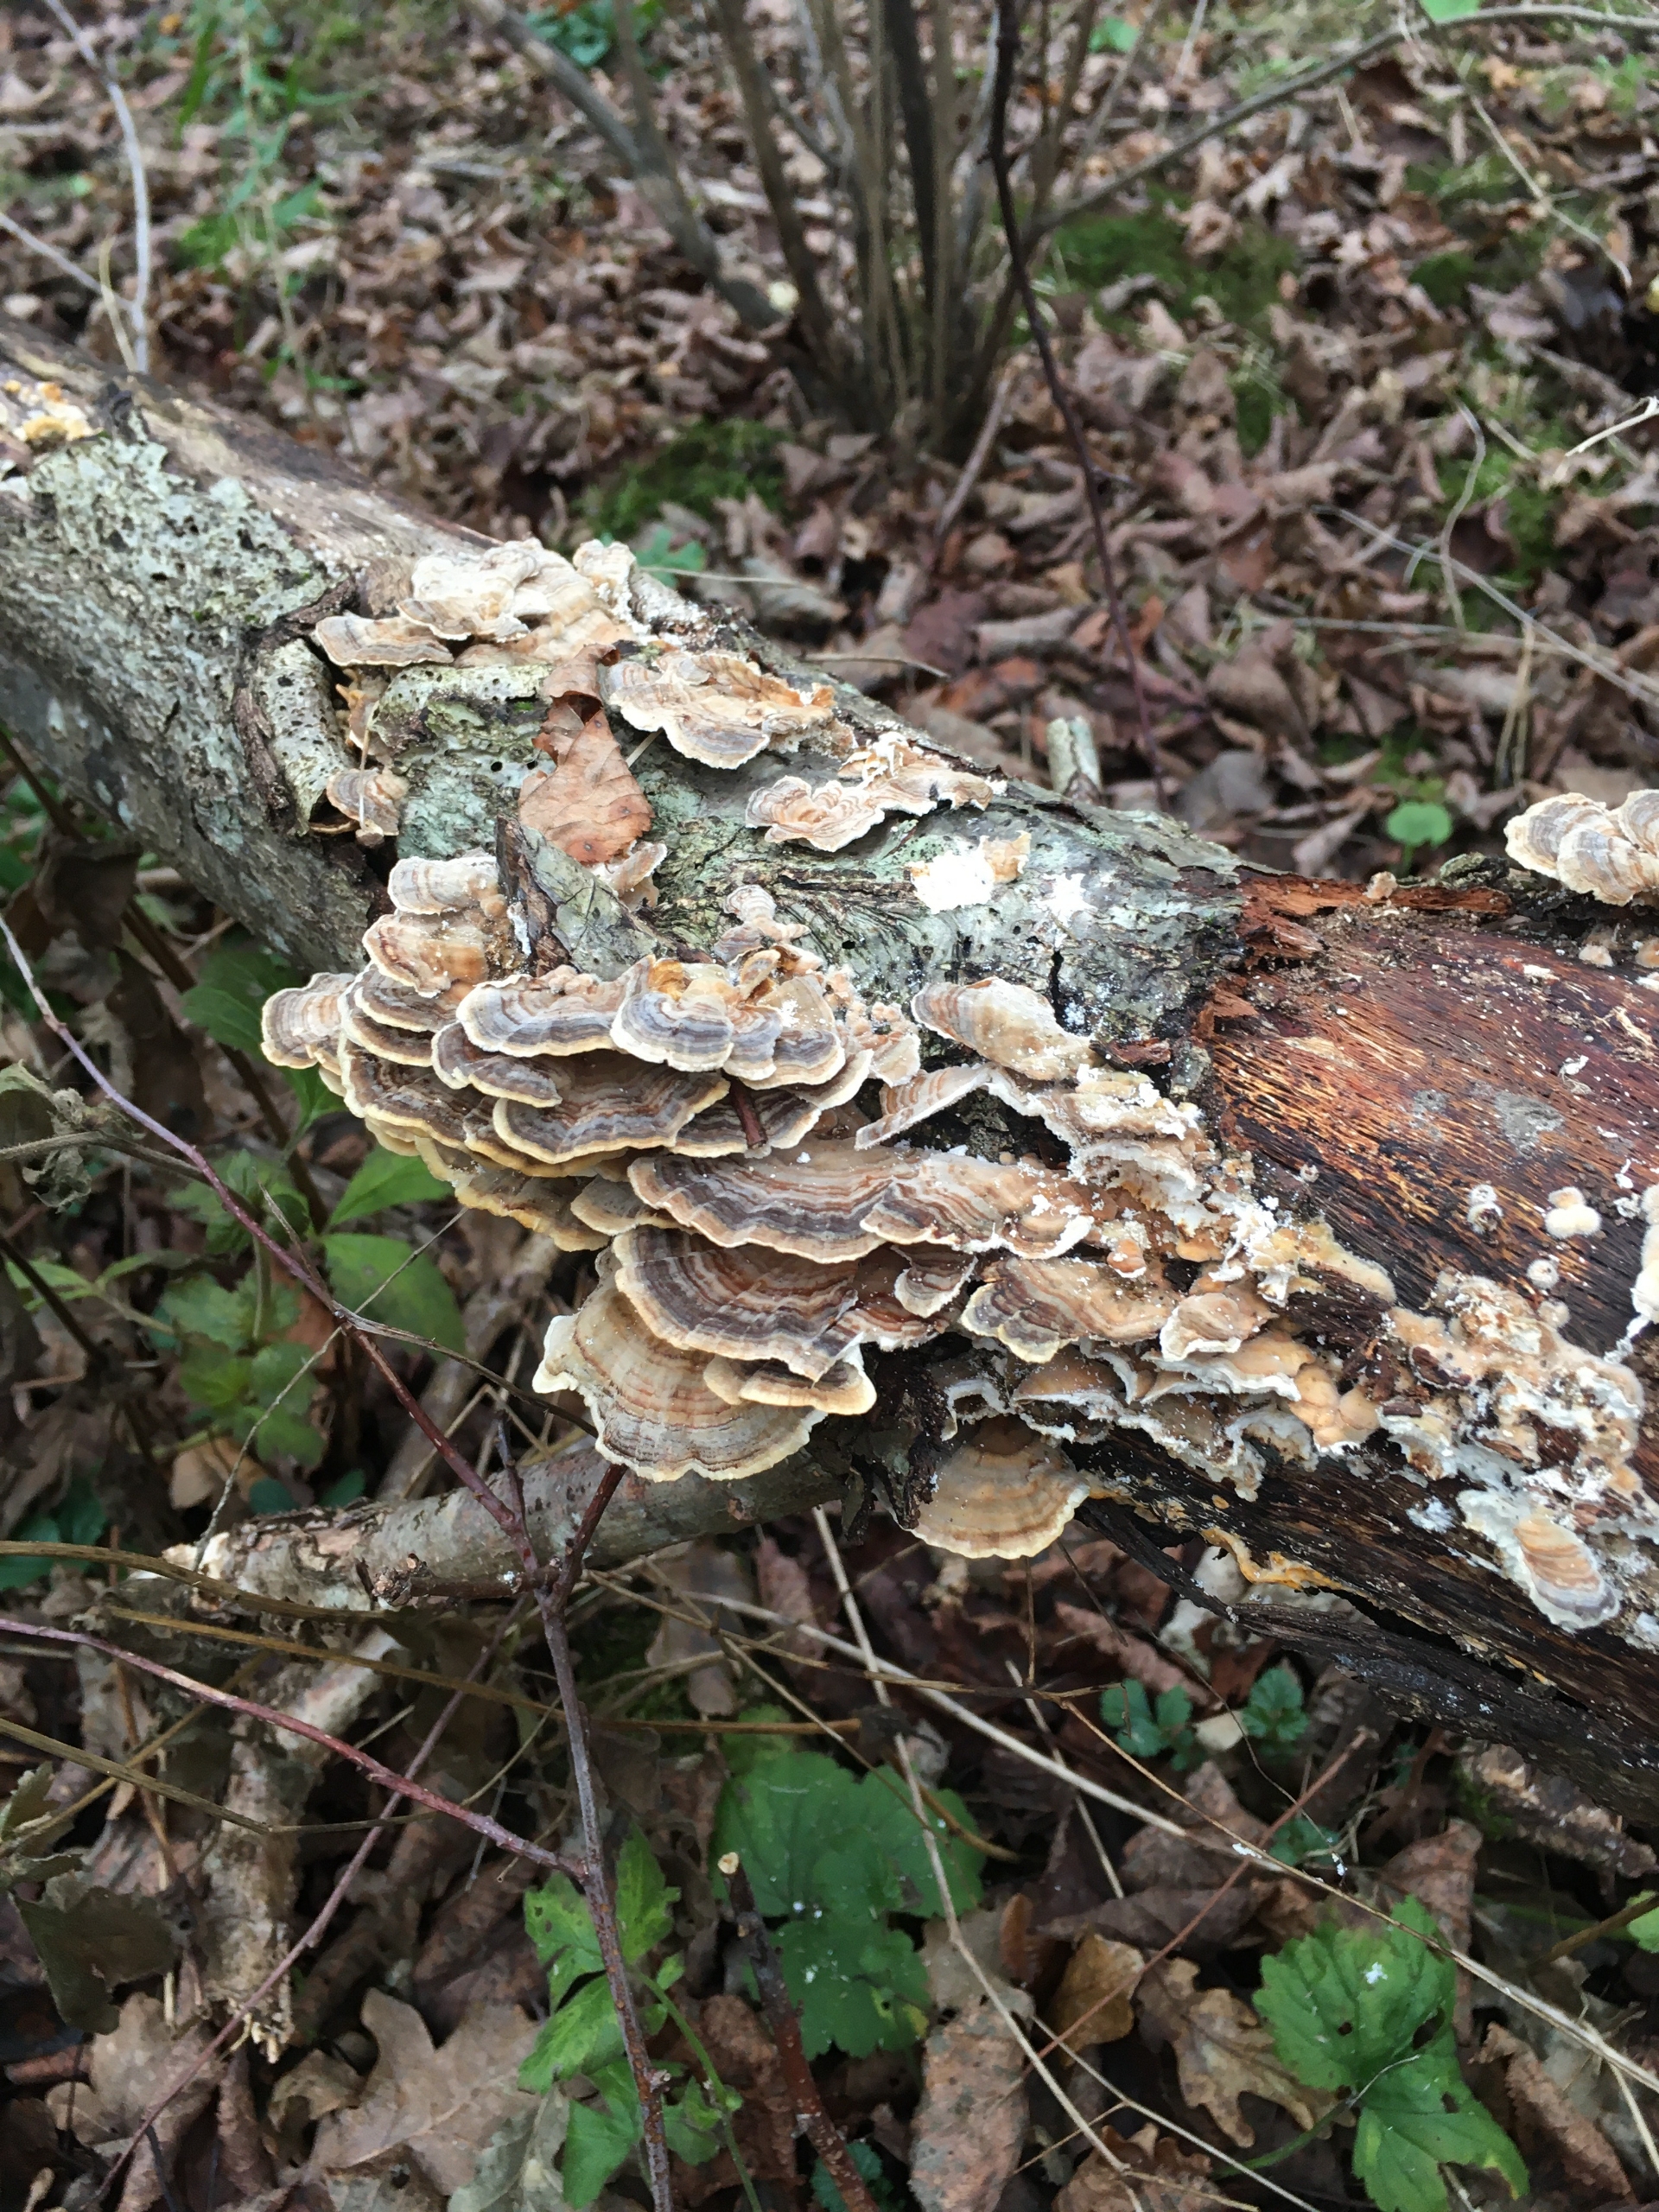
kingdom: Fungi
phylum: Basidiomycota
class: Agaricomycetes
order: Polyporales
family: Polyporaceae
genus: Trametes
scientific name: Trametes versicolor
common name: Broget læderporesvamp
